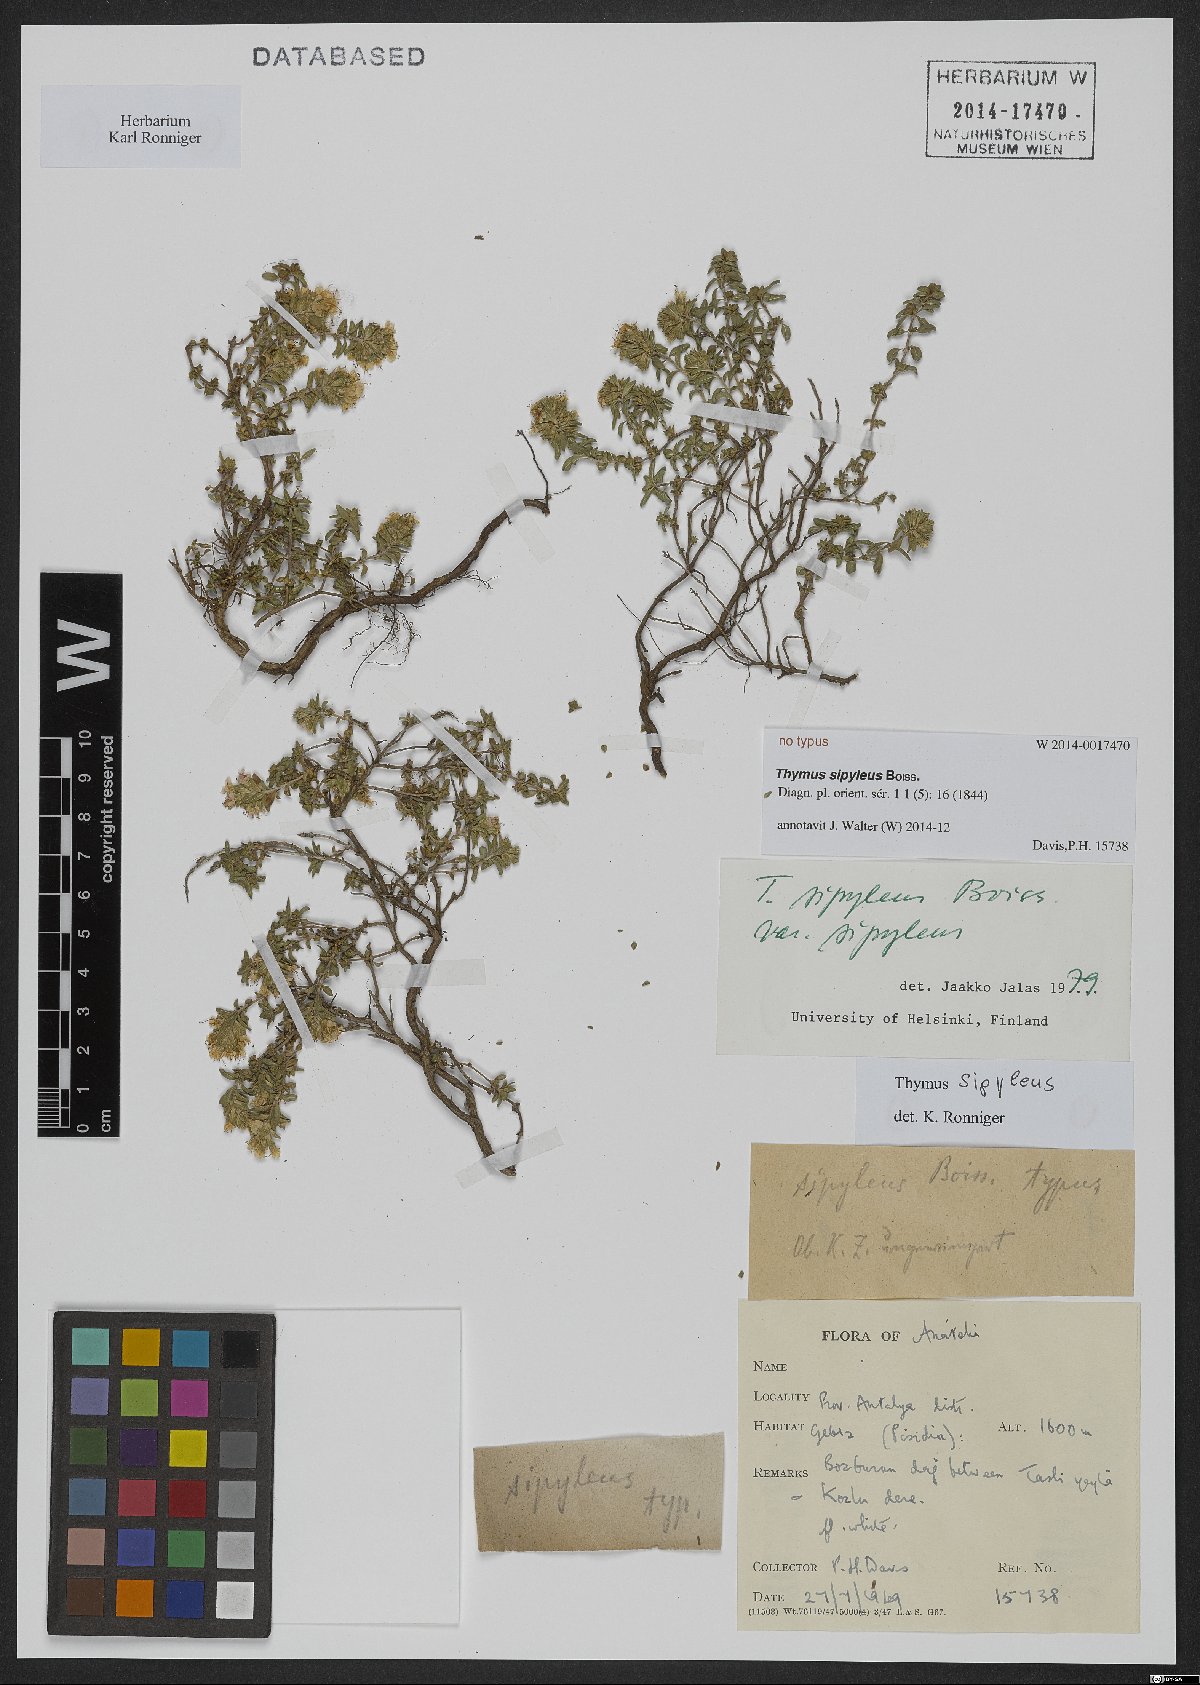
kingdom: Plantae
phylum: Tracheophyta
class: Magnoliopsida
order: Lamiales
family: Lamiaceae
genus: Thymus
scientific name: Thymus sipyleus
